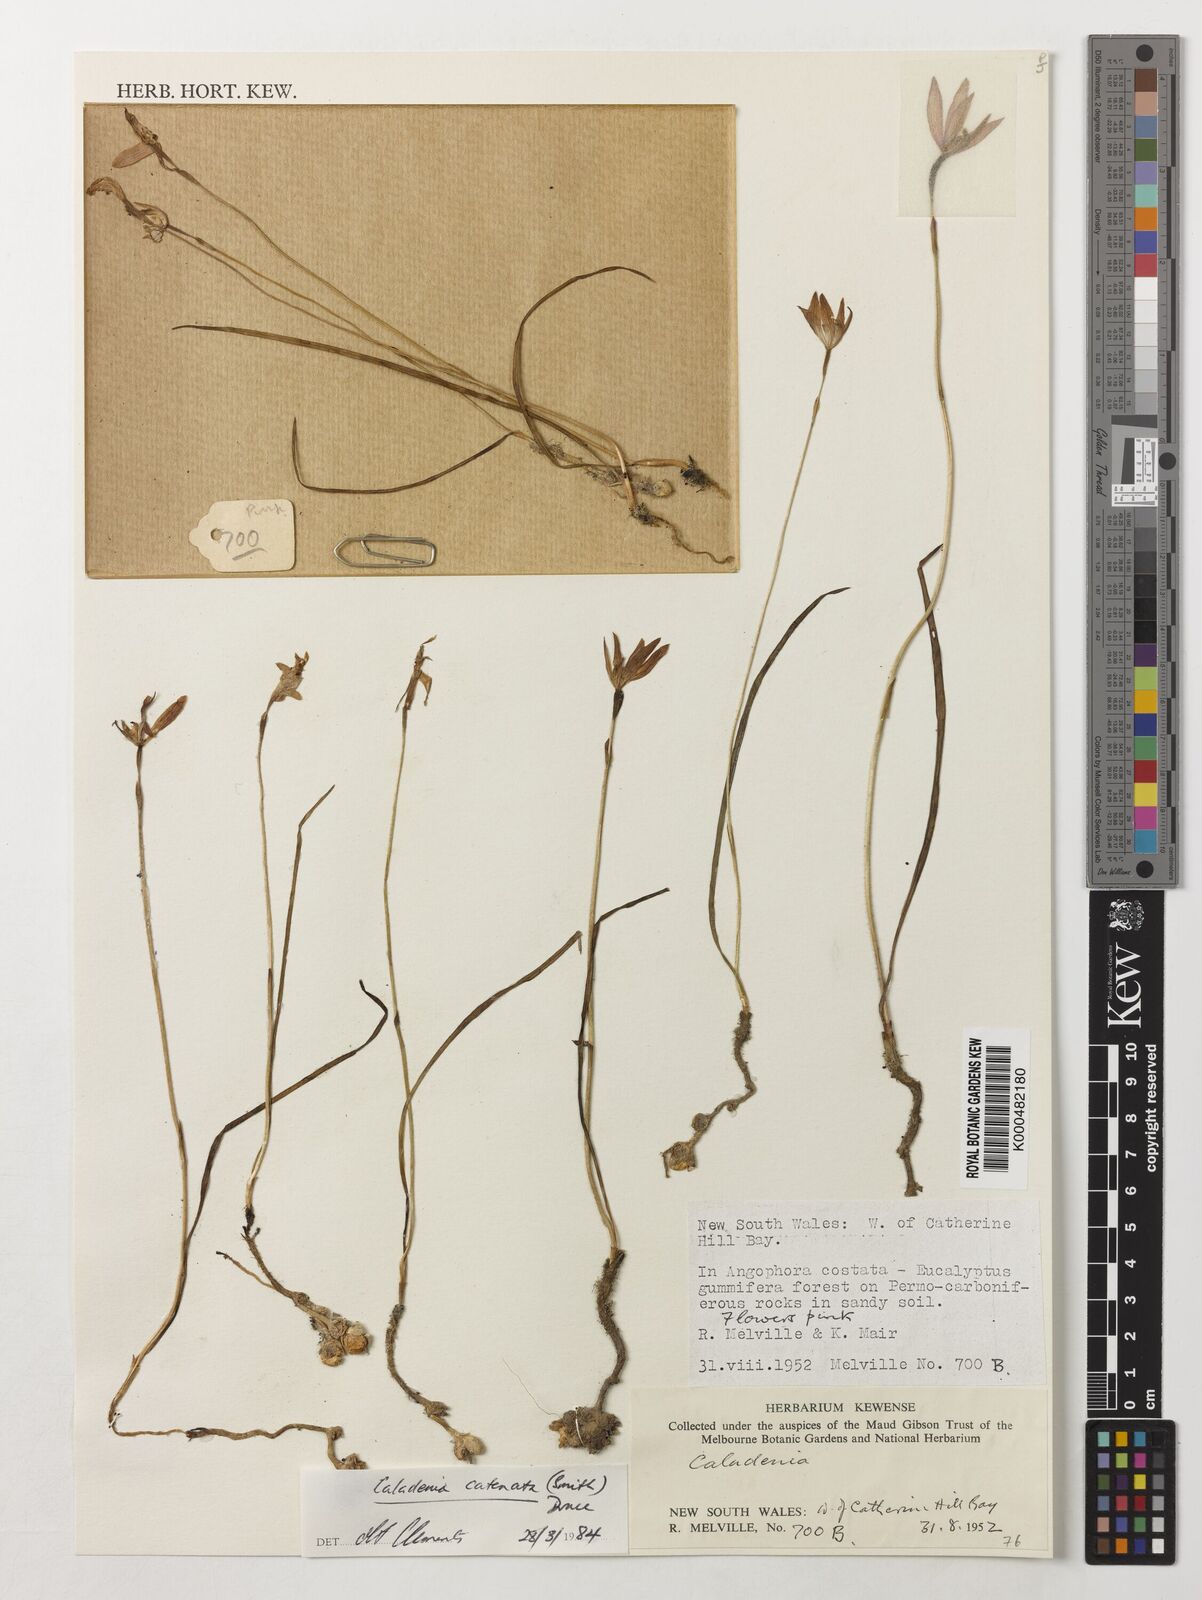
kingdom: Plantae
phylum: Tracheophyta
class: Liliopsida
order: Asparagales
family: Orchidaceae
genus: Caladenia
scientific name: Caladenia
